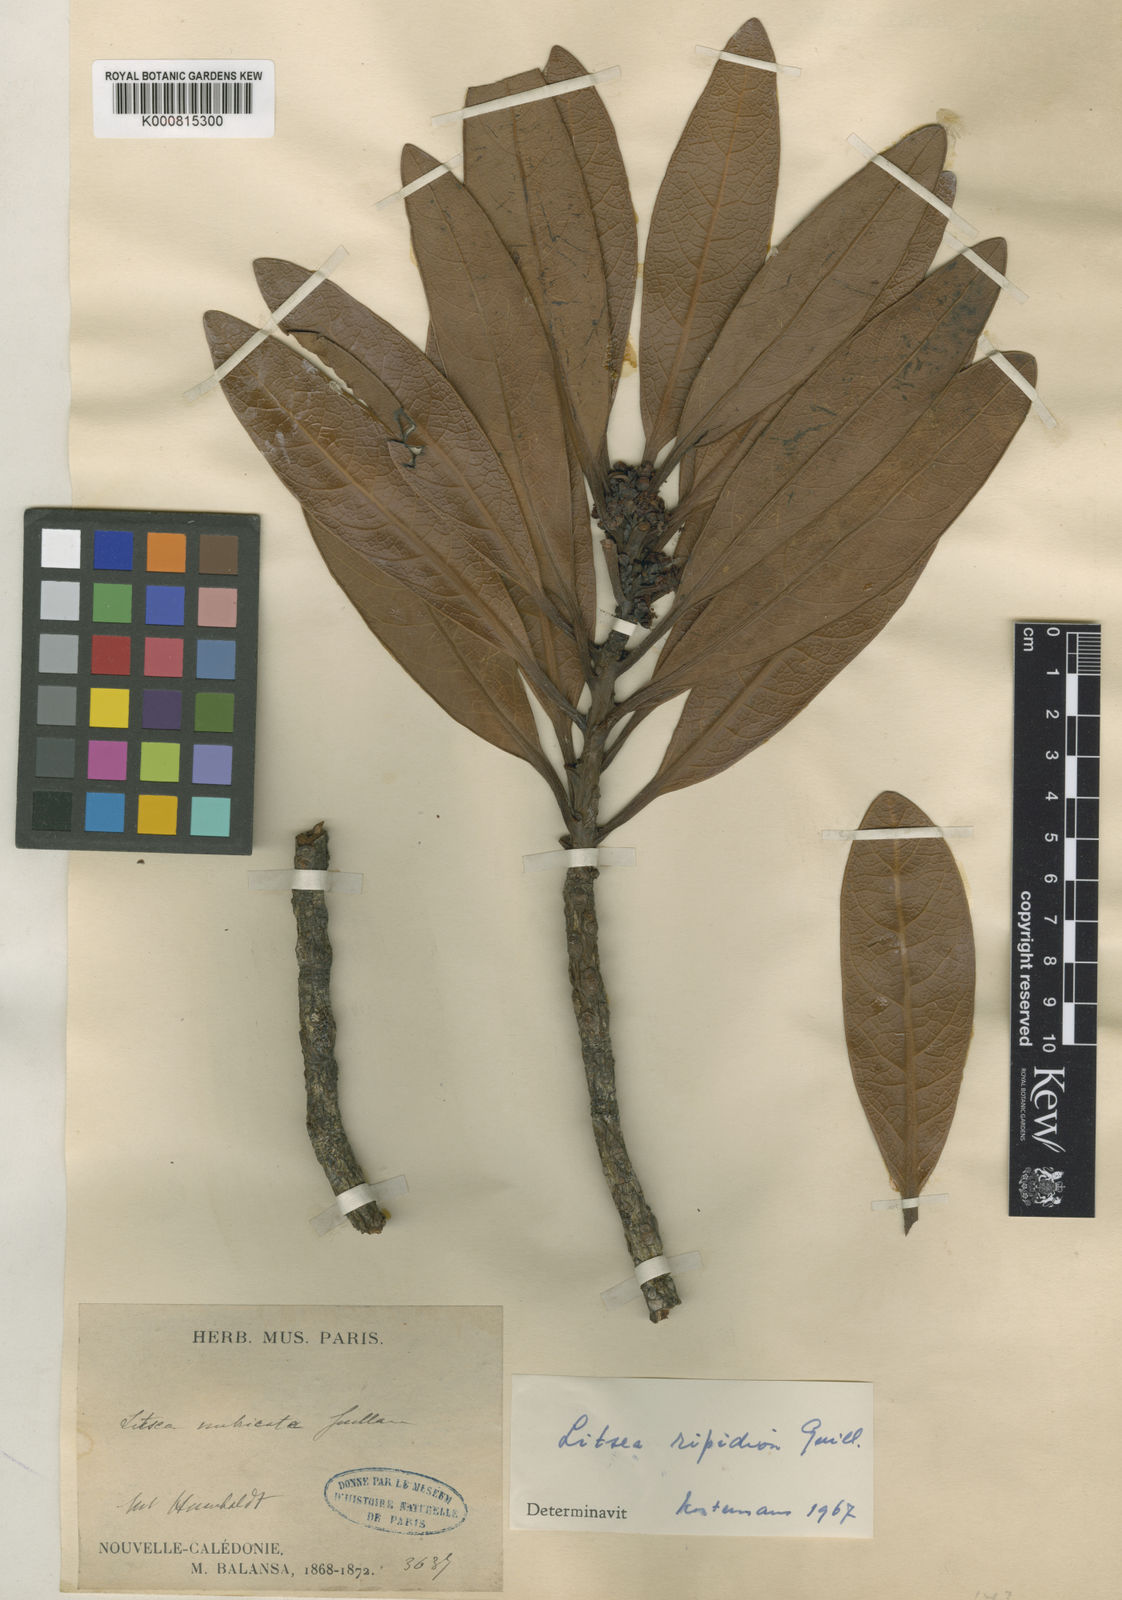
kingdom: Plantae
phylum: Tracheophyta
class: Magnoliopsida
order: Laurales
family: Lauraceae
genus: Litsea
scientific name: Litsea ripidion
